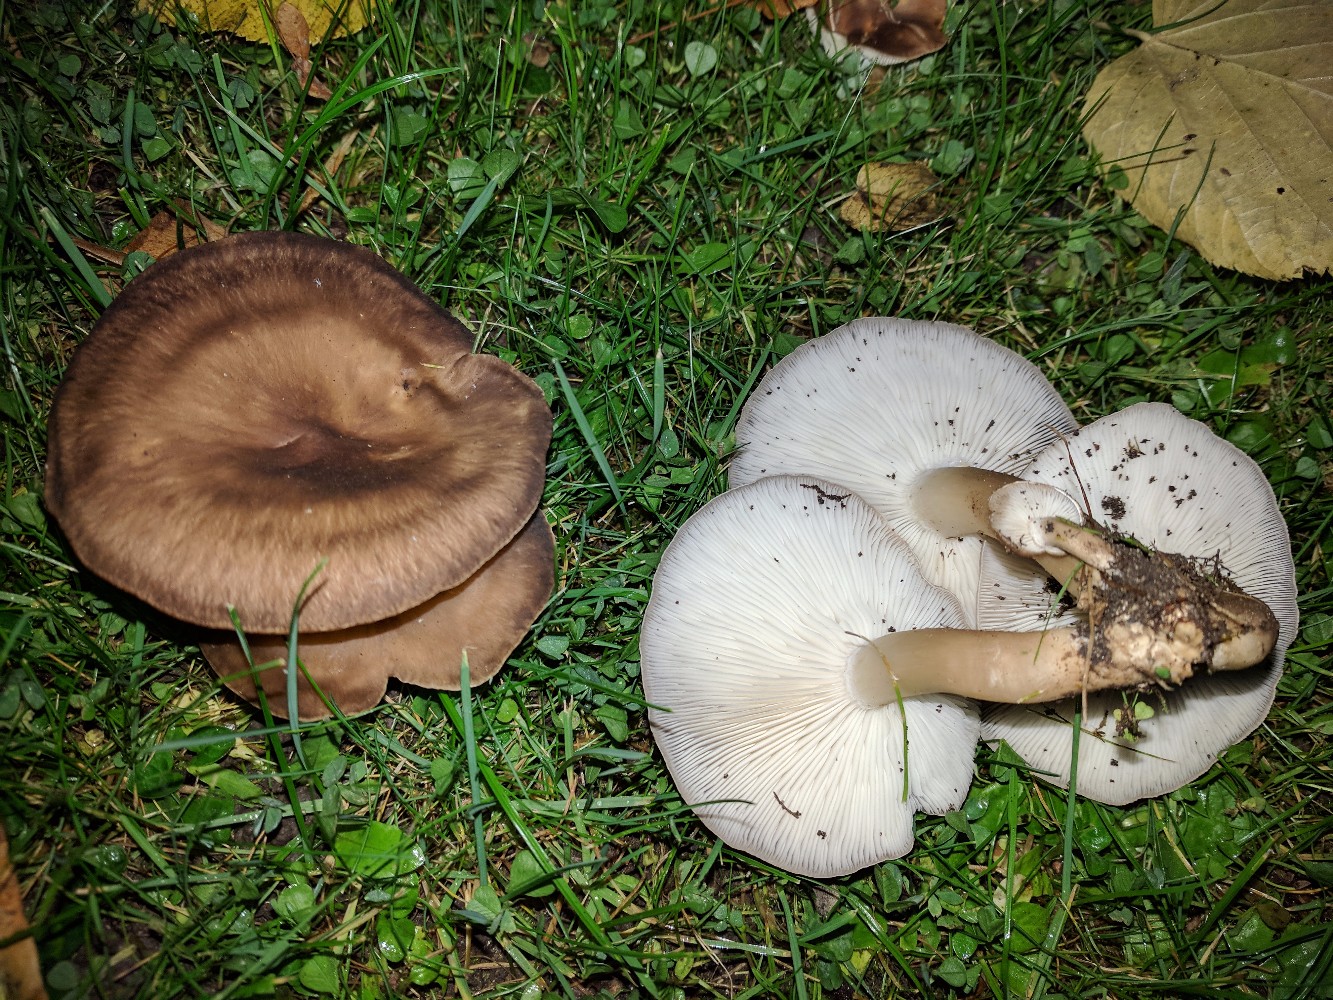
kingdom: Fungi
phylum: Basidiomycota
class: Agaricomycetes
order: Agaricales
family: Lyophyllaceae
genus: Lyophyllum
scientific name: Lyophyllum decastes
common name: røggrå gråblad
